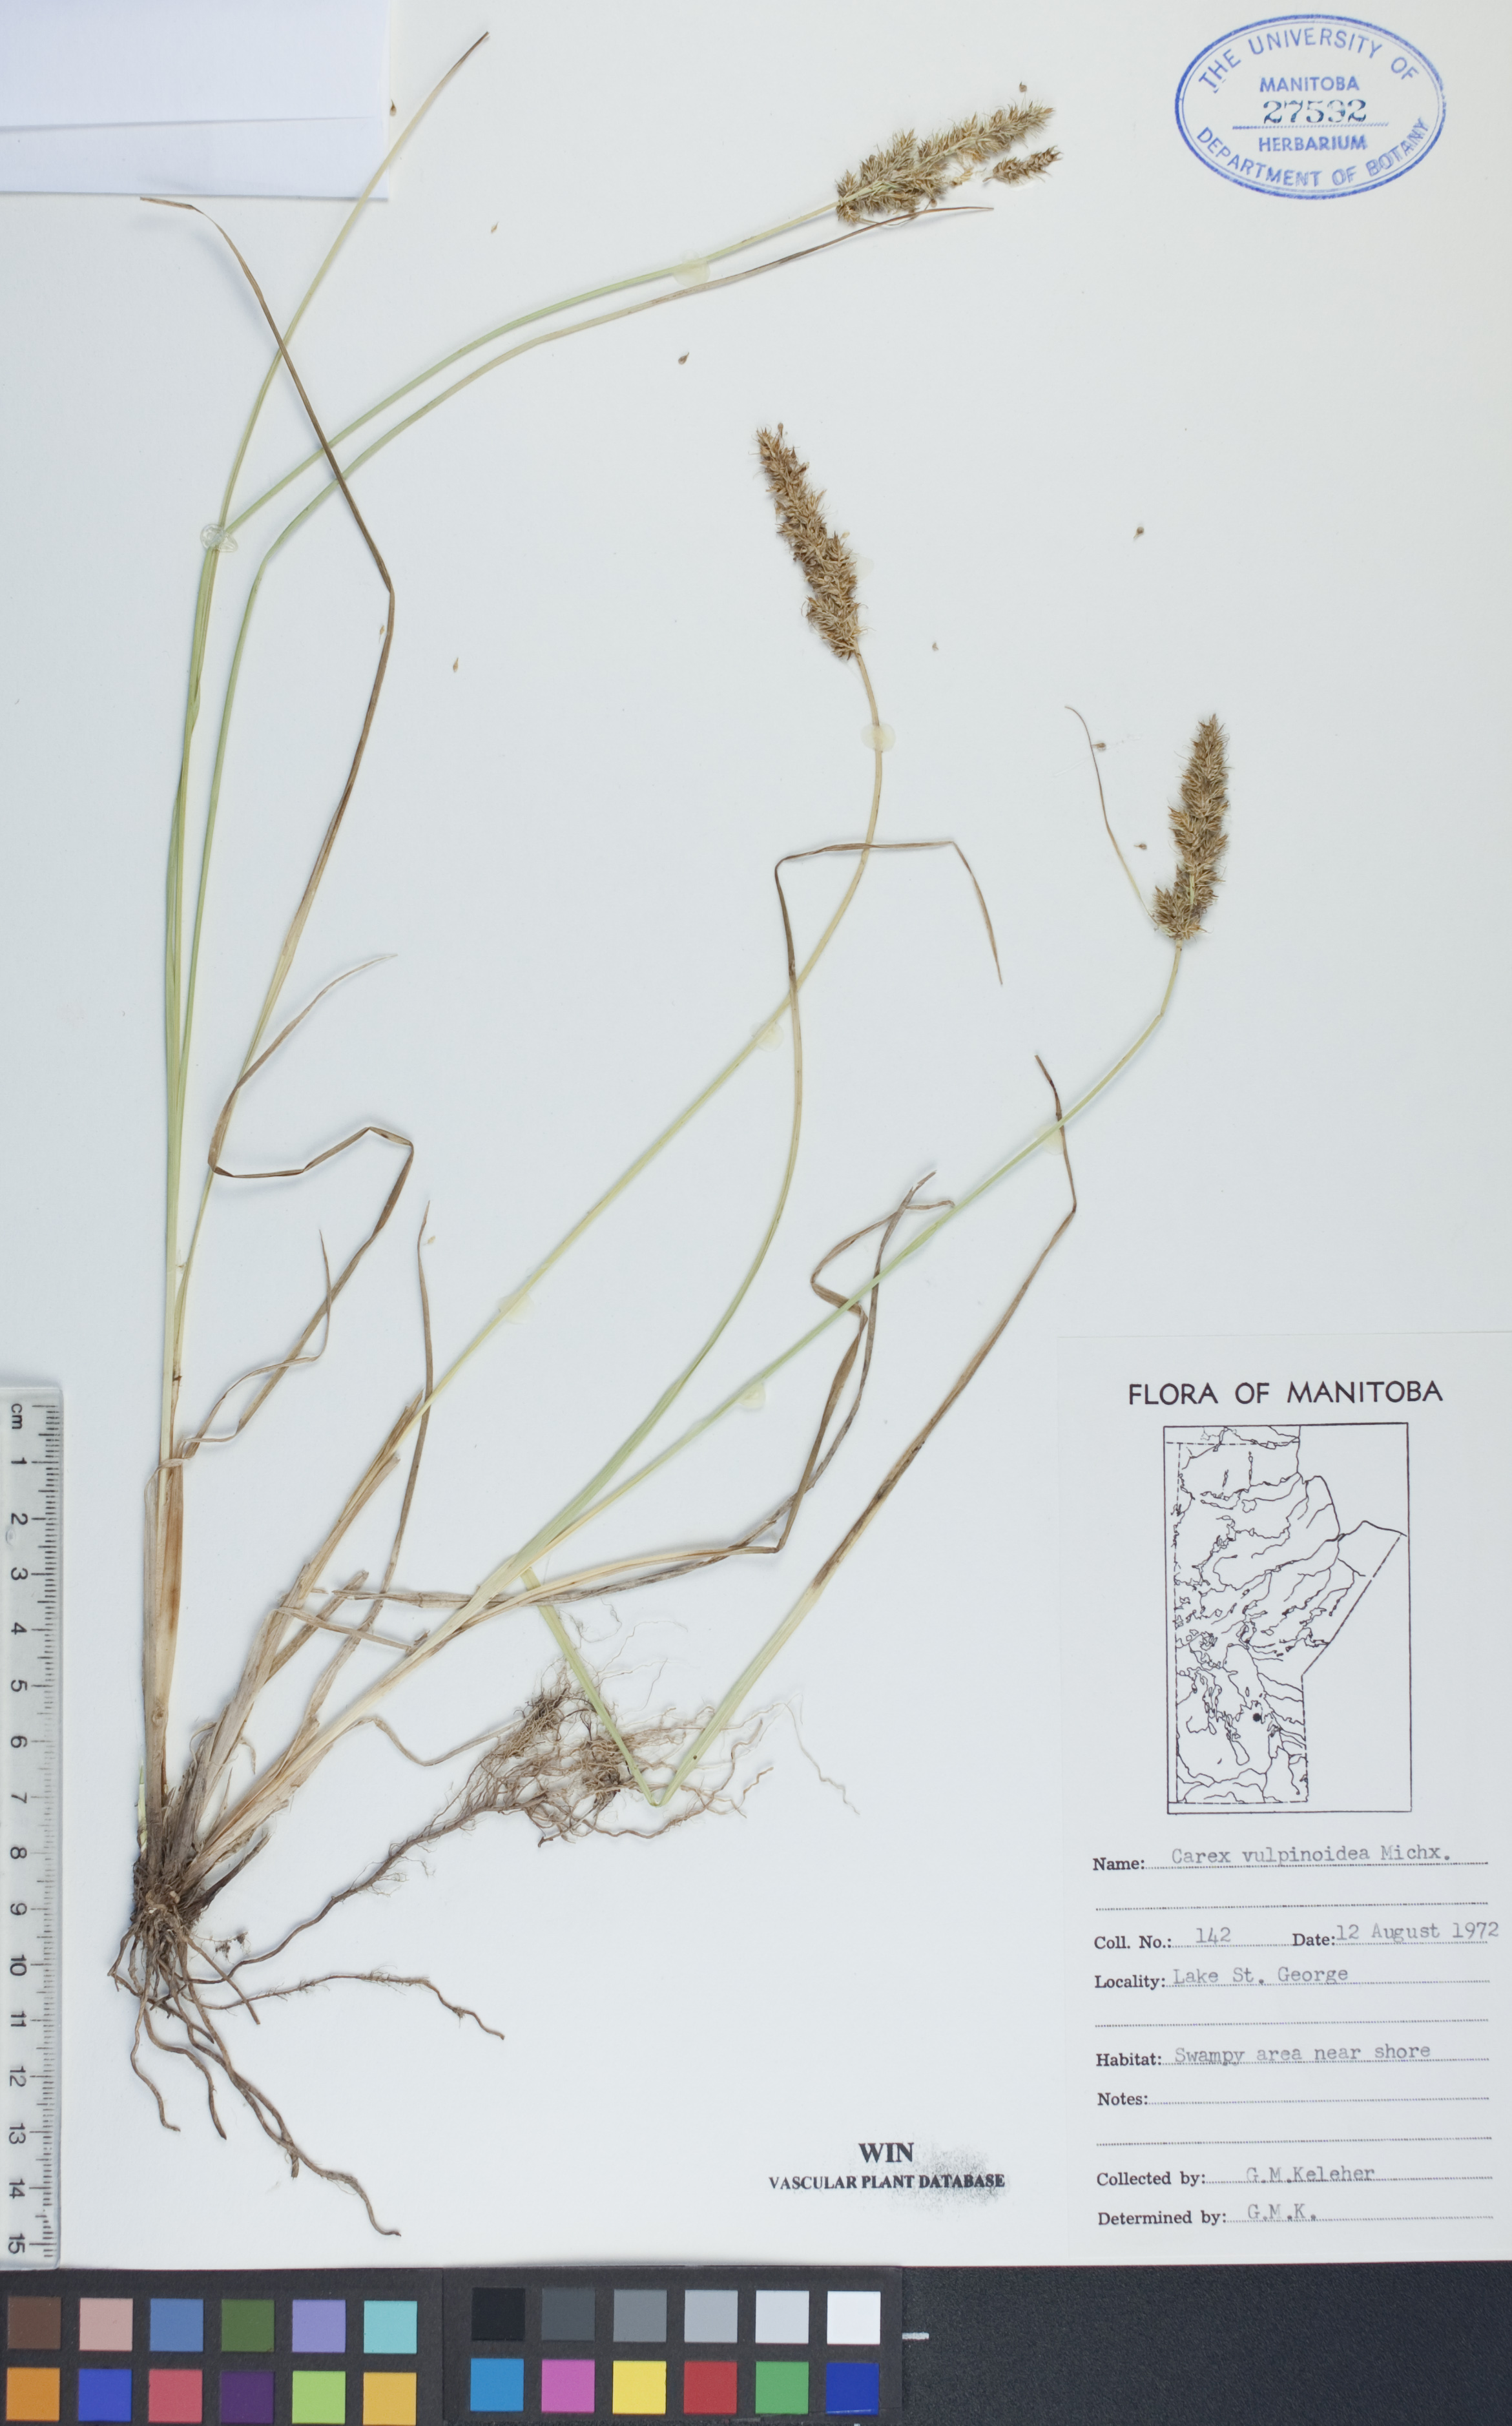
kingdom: Plantae
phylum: Tracheophyta
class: Liliopsida
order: Poales
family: Cyperaceae
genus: Carex
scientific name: Carex vulpinoidea
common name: American fox-sedge
